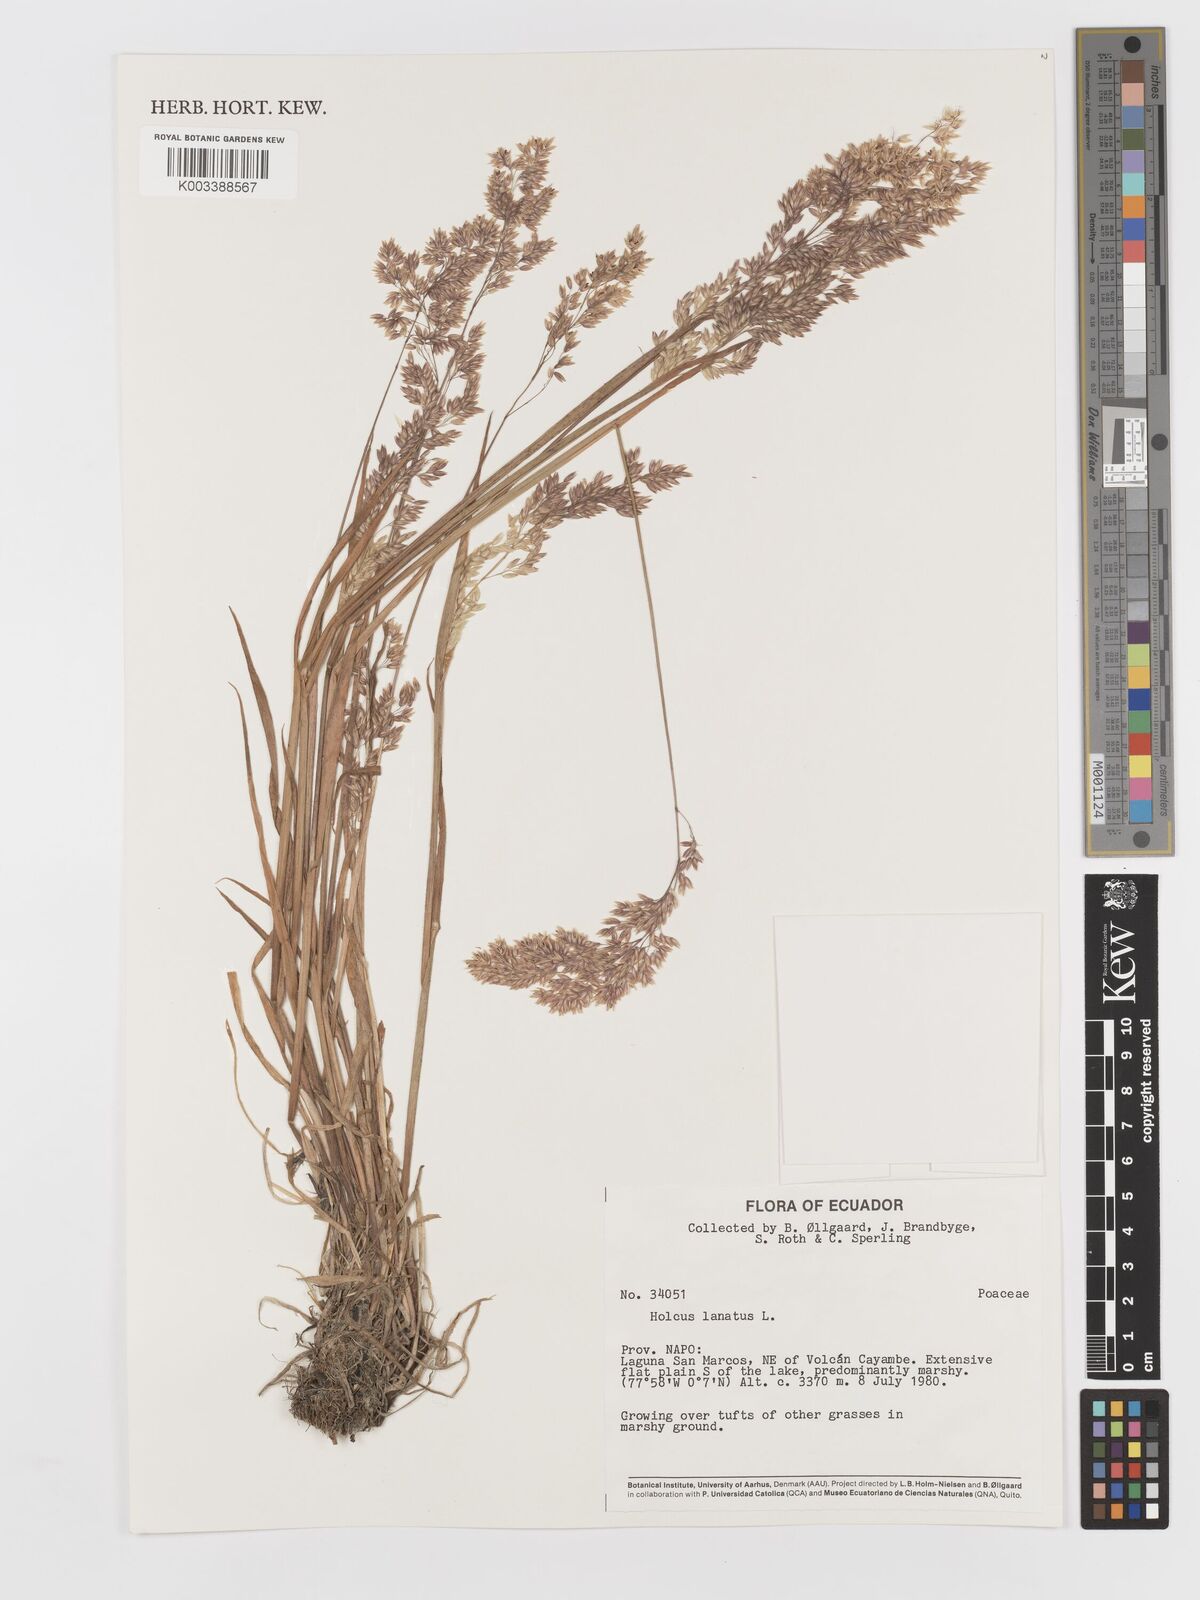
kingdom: Plantae
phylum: Tracheophyta
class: Liliopsida
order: Poales
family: Poaceae
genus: Holcus
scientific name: Holcus lanatus
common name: Yorkshire-fog
